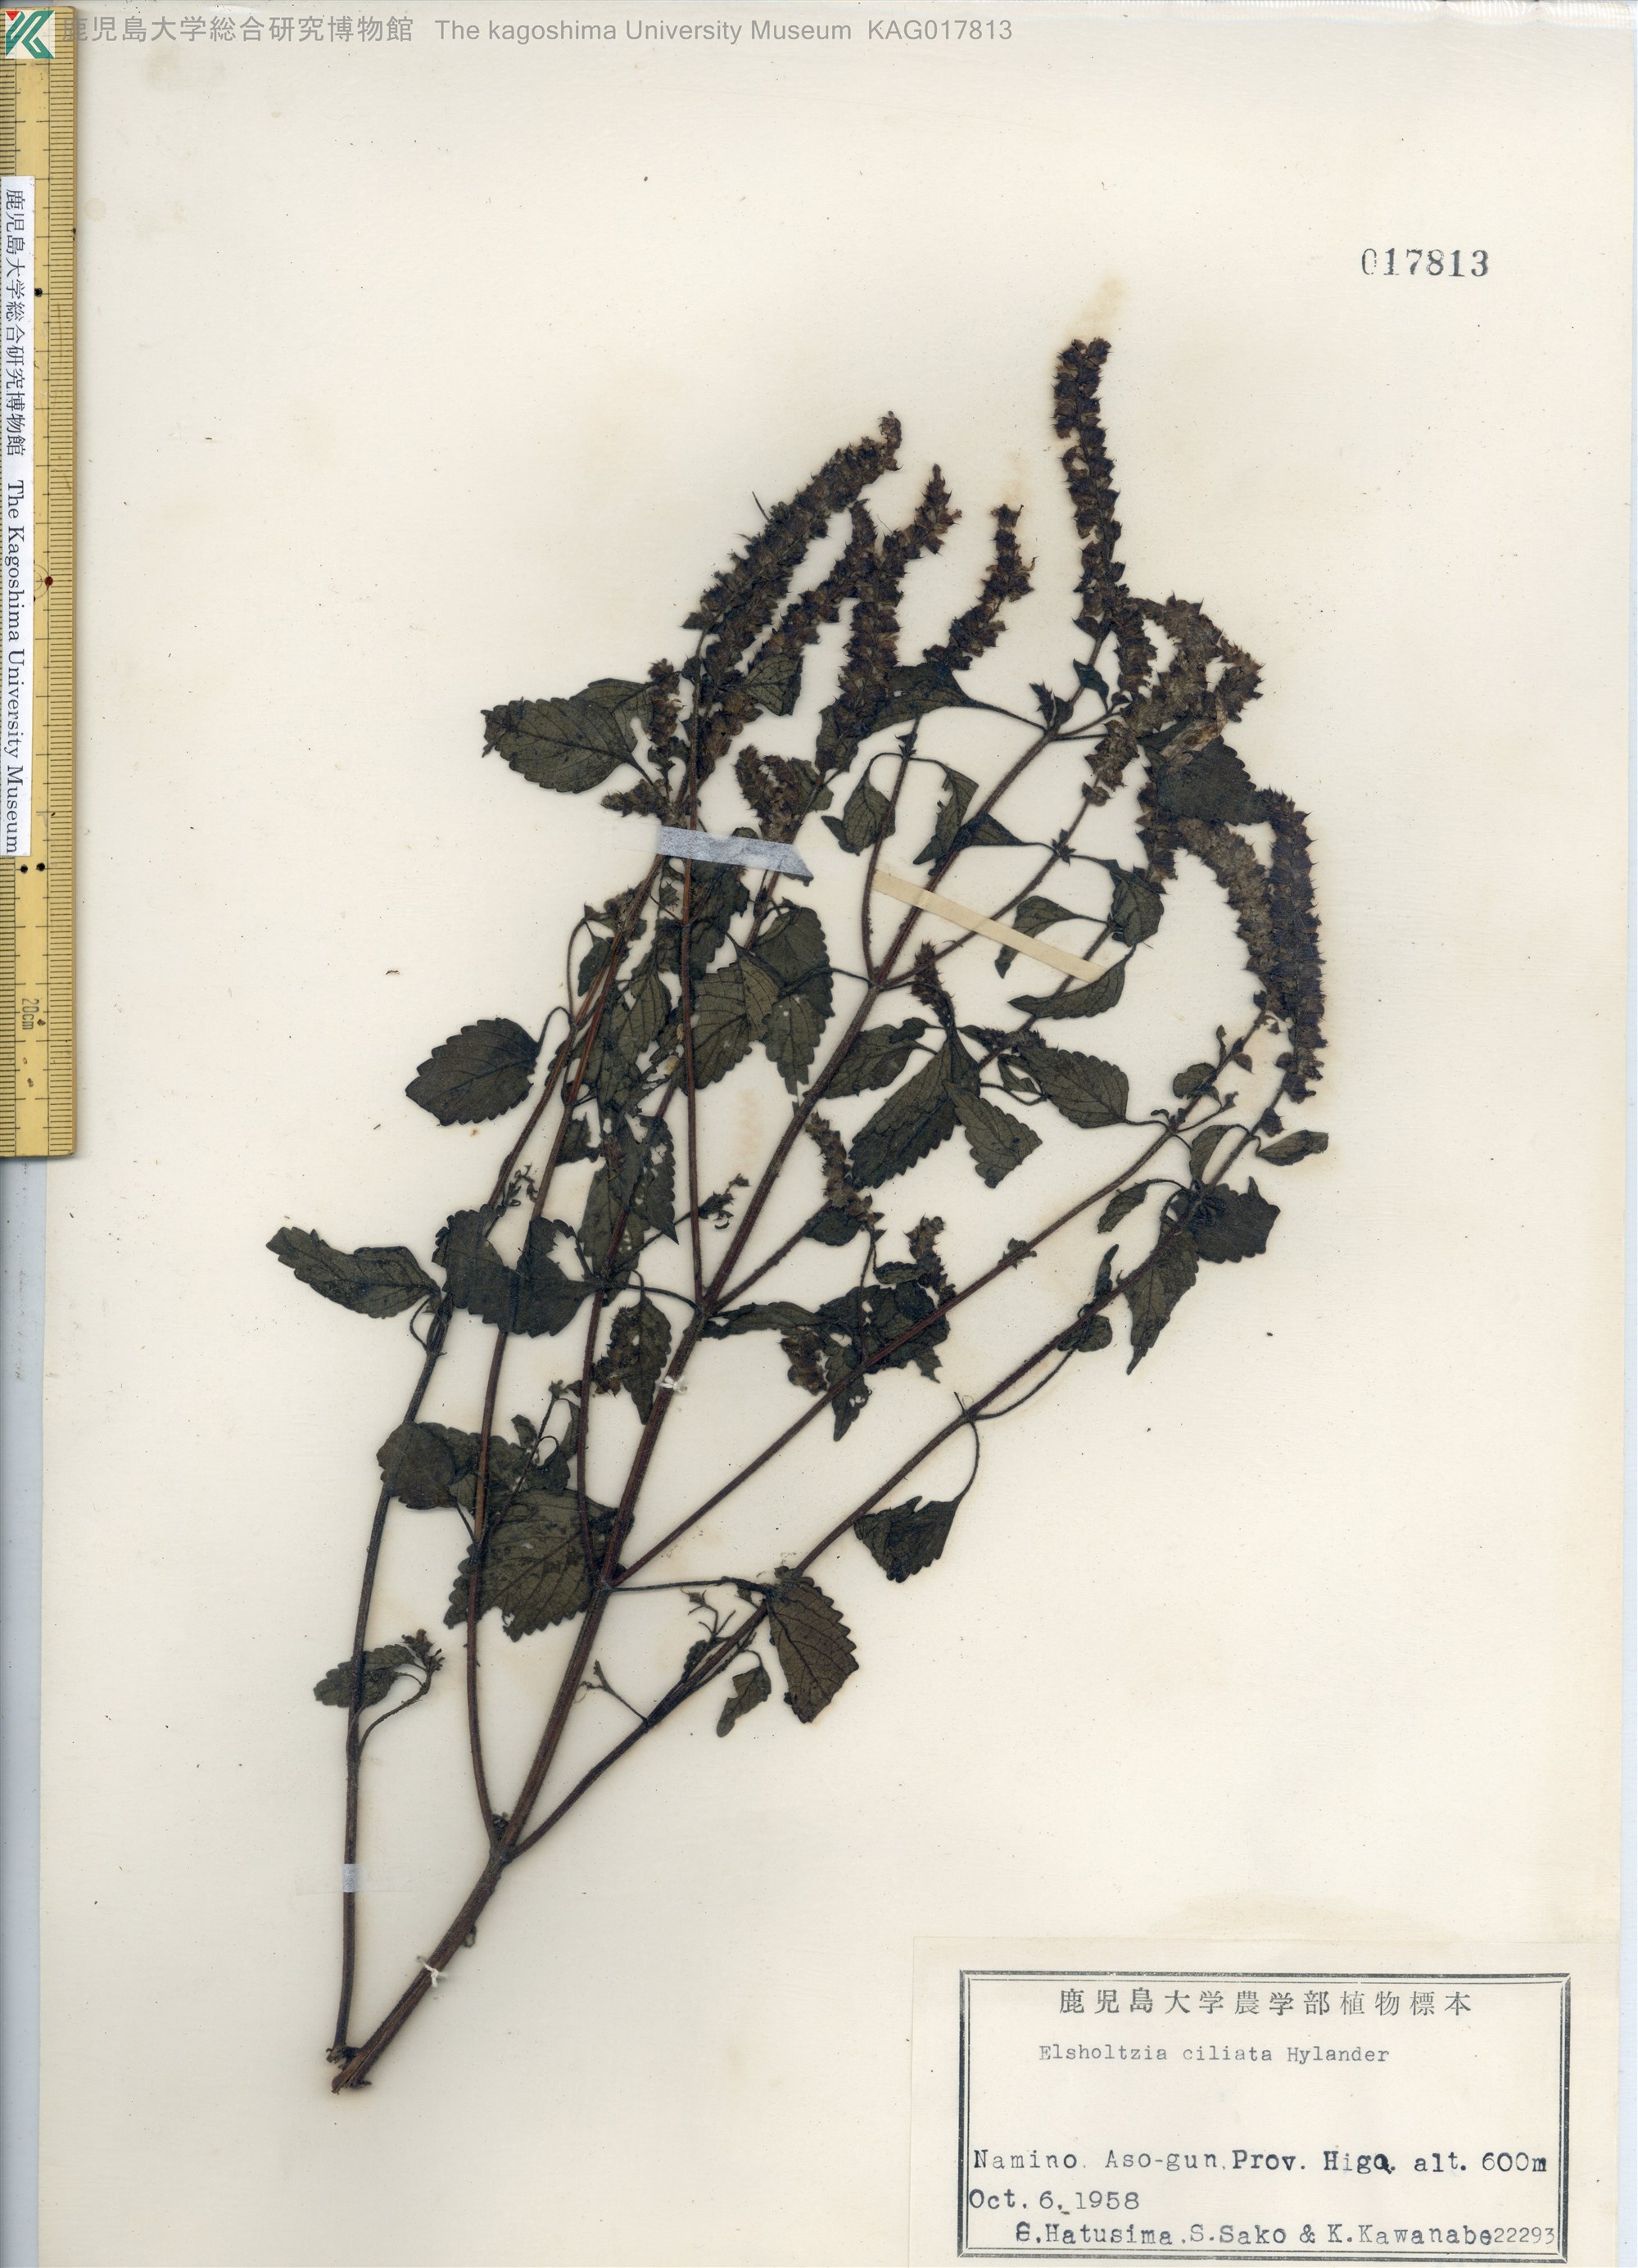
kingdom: Plantae
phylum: Tracheophyta
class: Magnoliopsida
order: Lamiales
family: Lamiaceae
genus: Elsholtzia
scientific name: Elsholtzia ciliata
